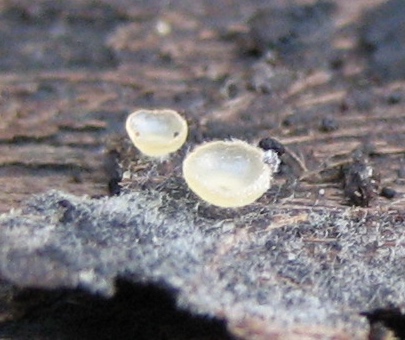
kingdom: Fungi
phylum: Ascomycota
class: Orbiliomycetes
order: Orbiliales
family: Orbiliaceae
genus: Hyalorbilia
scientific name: Hyalorbilia inflatula
